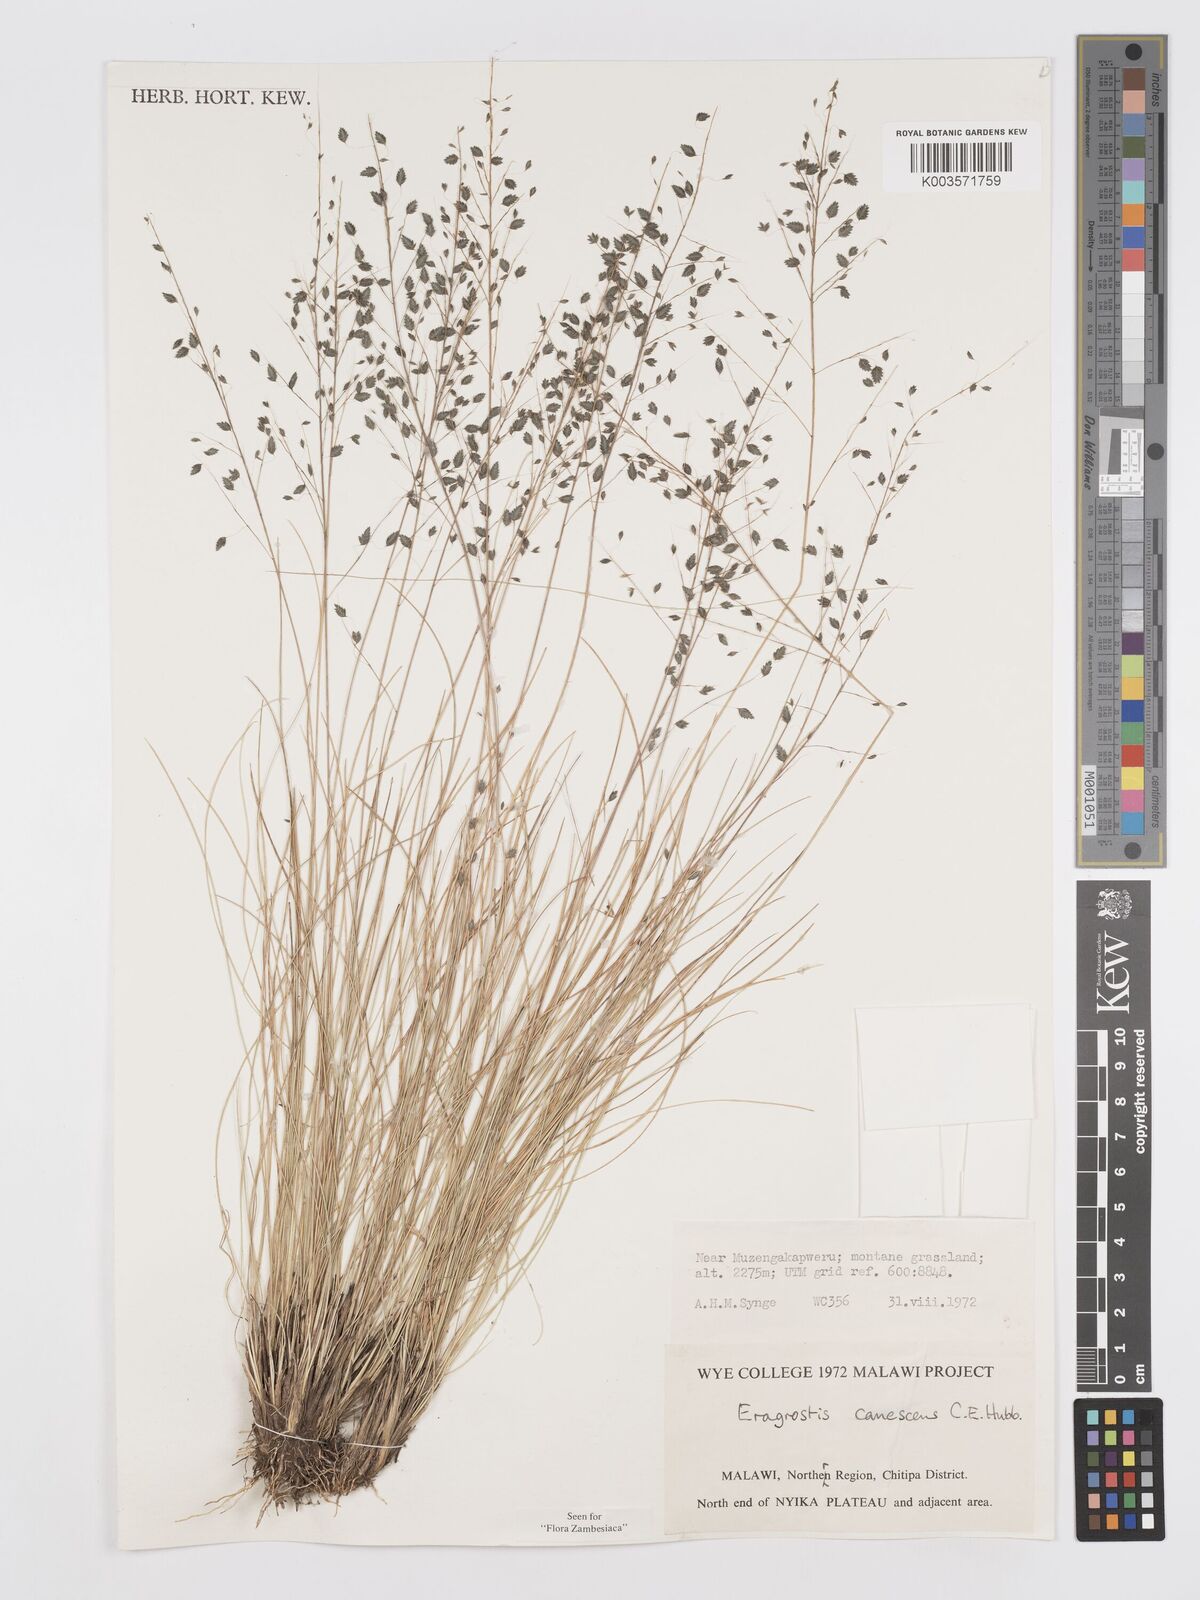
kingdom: Plantae
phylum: Tracheophyta
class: Liliopsida
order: Poales
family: Poaceae
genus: Eragrostis
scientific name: Eragrostis canescens
